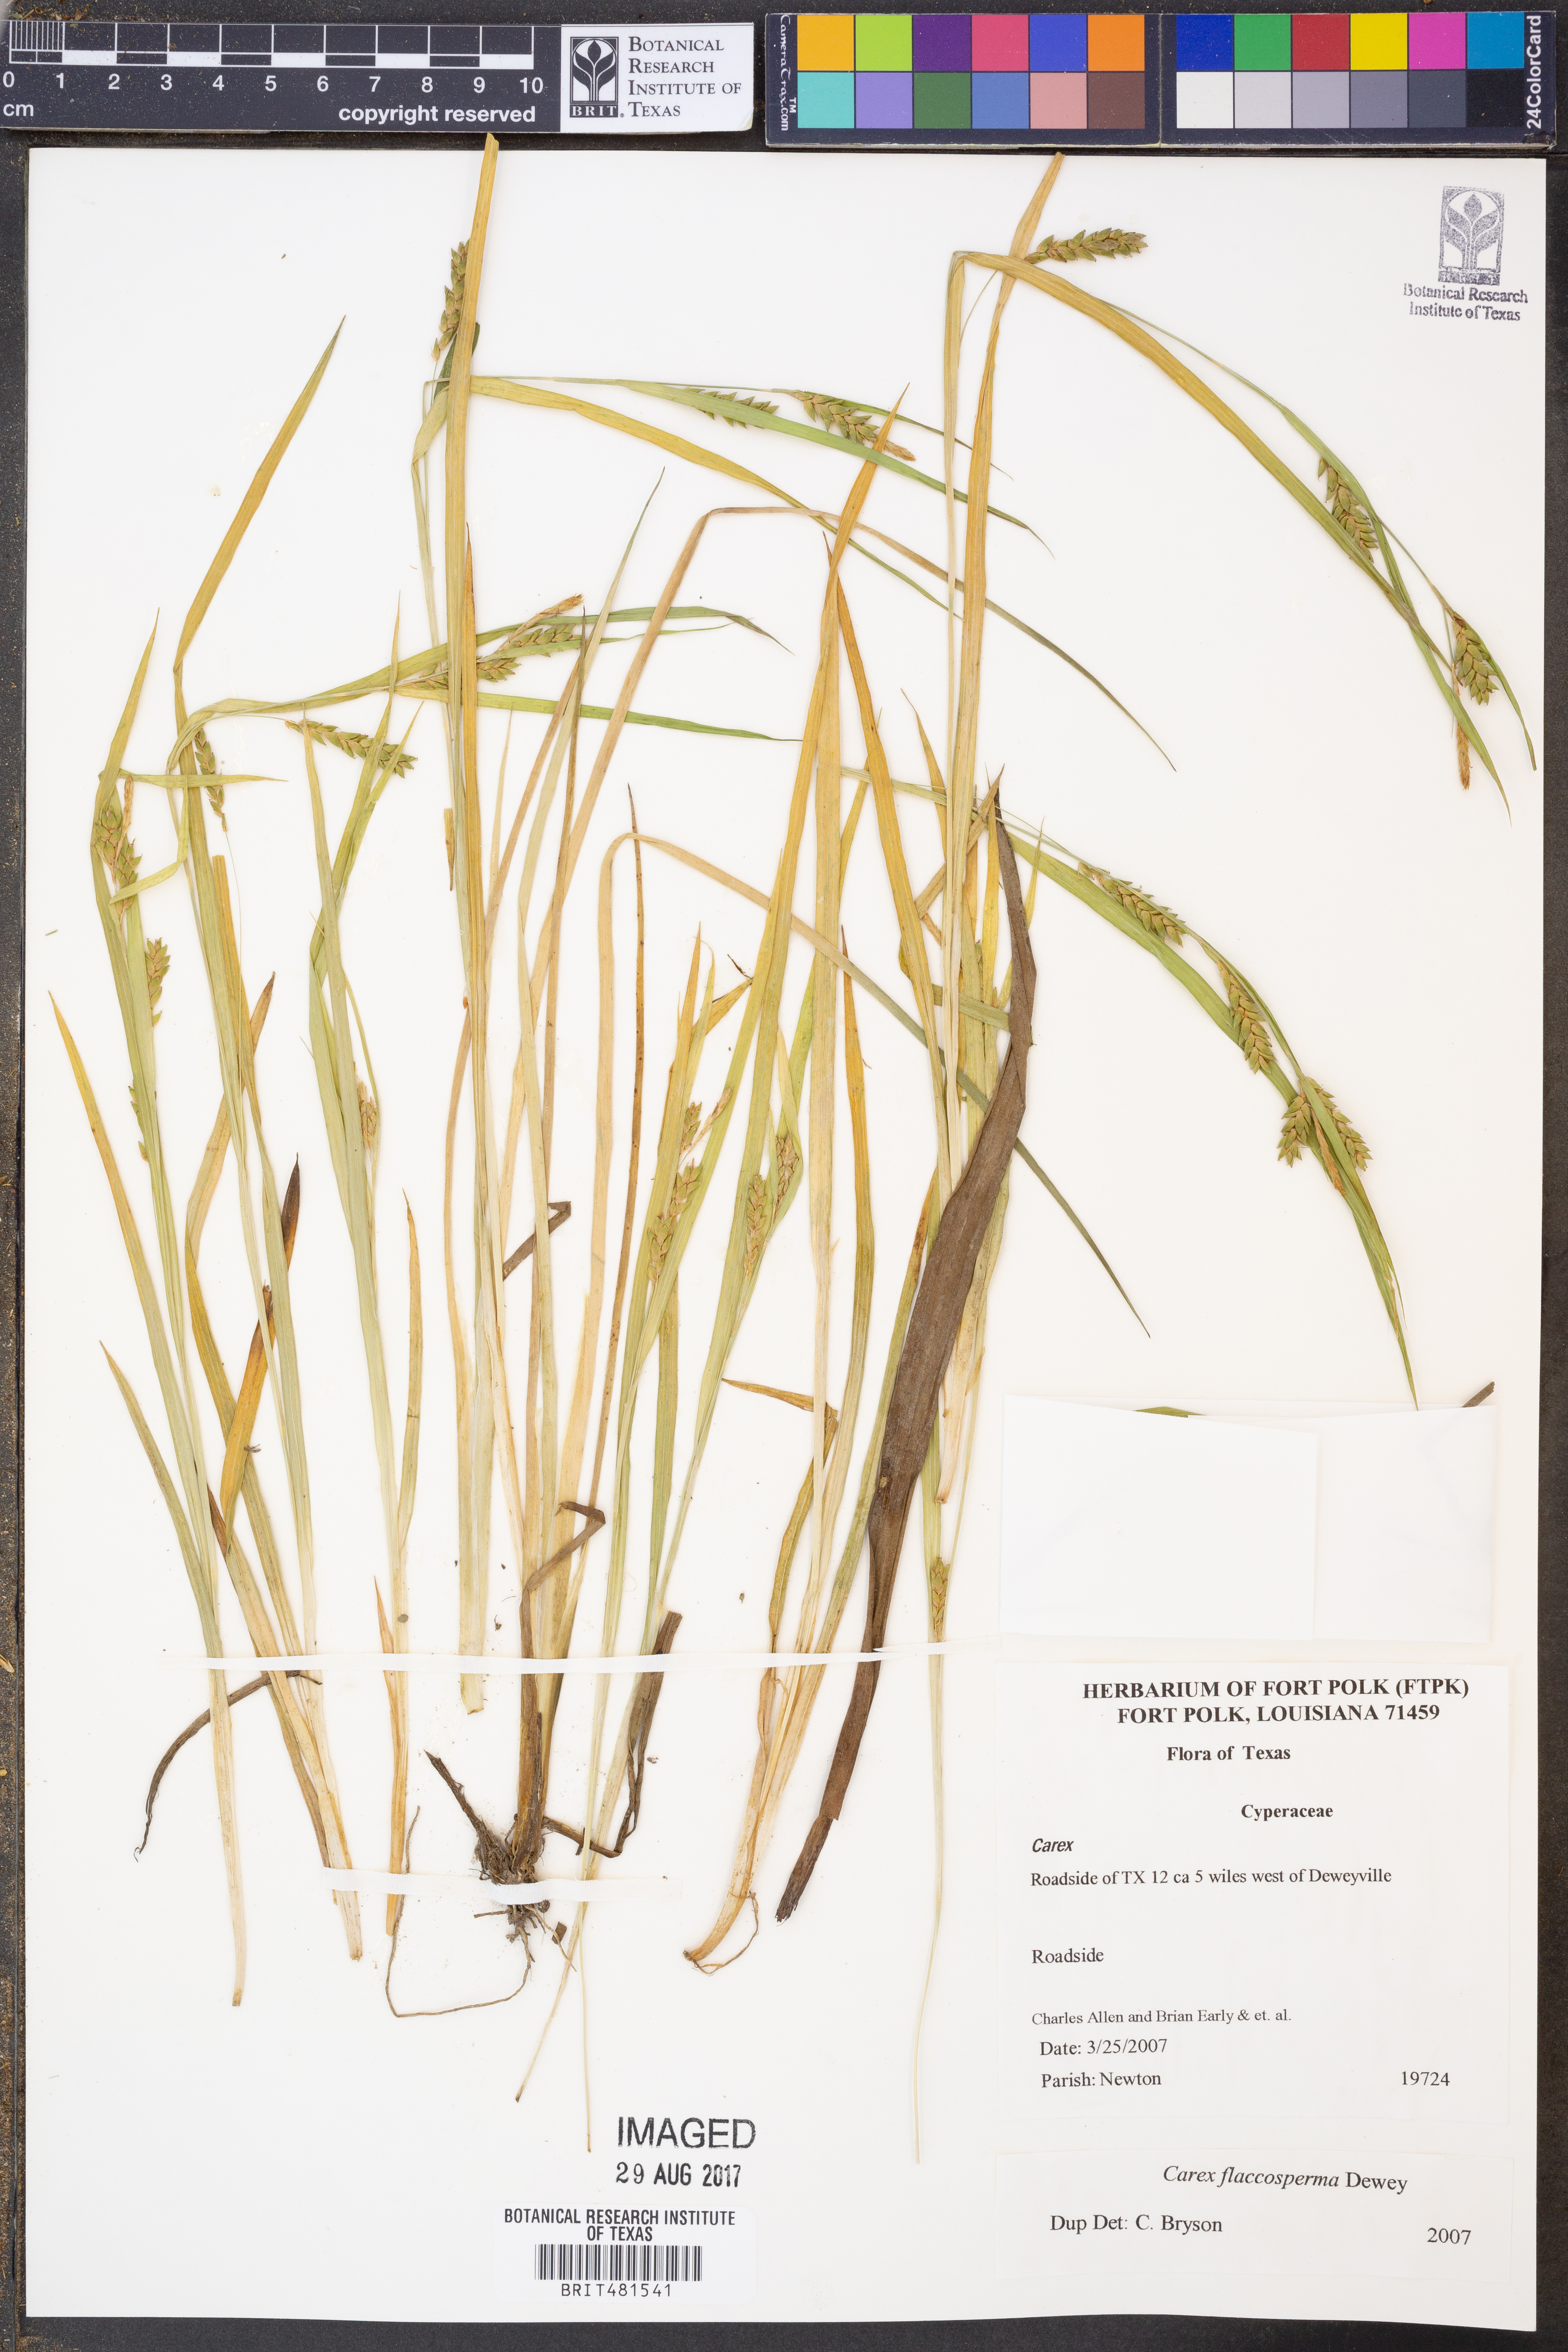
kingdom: Plantae
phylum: Tracheophyta
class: Liliopsida
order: Poales
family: Cyperaceae
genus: Carex
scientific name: Carex flaccosperma
